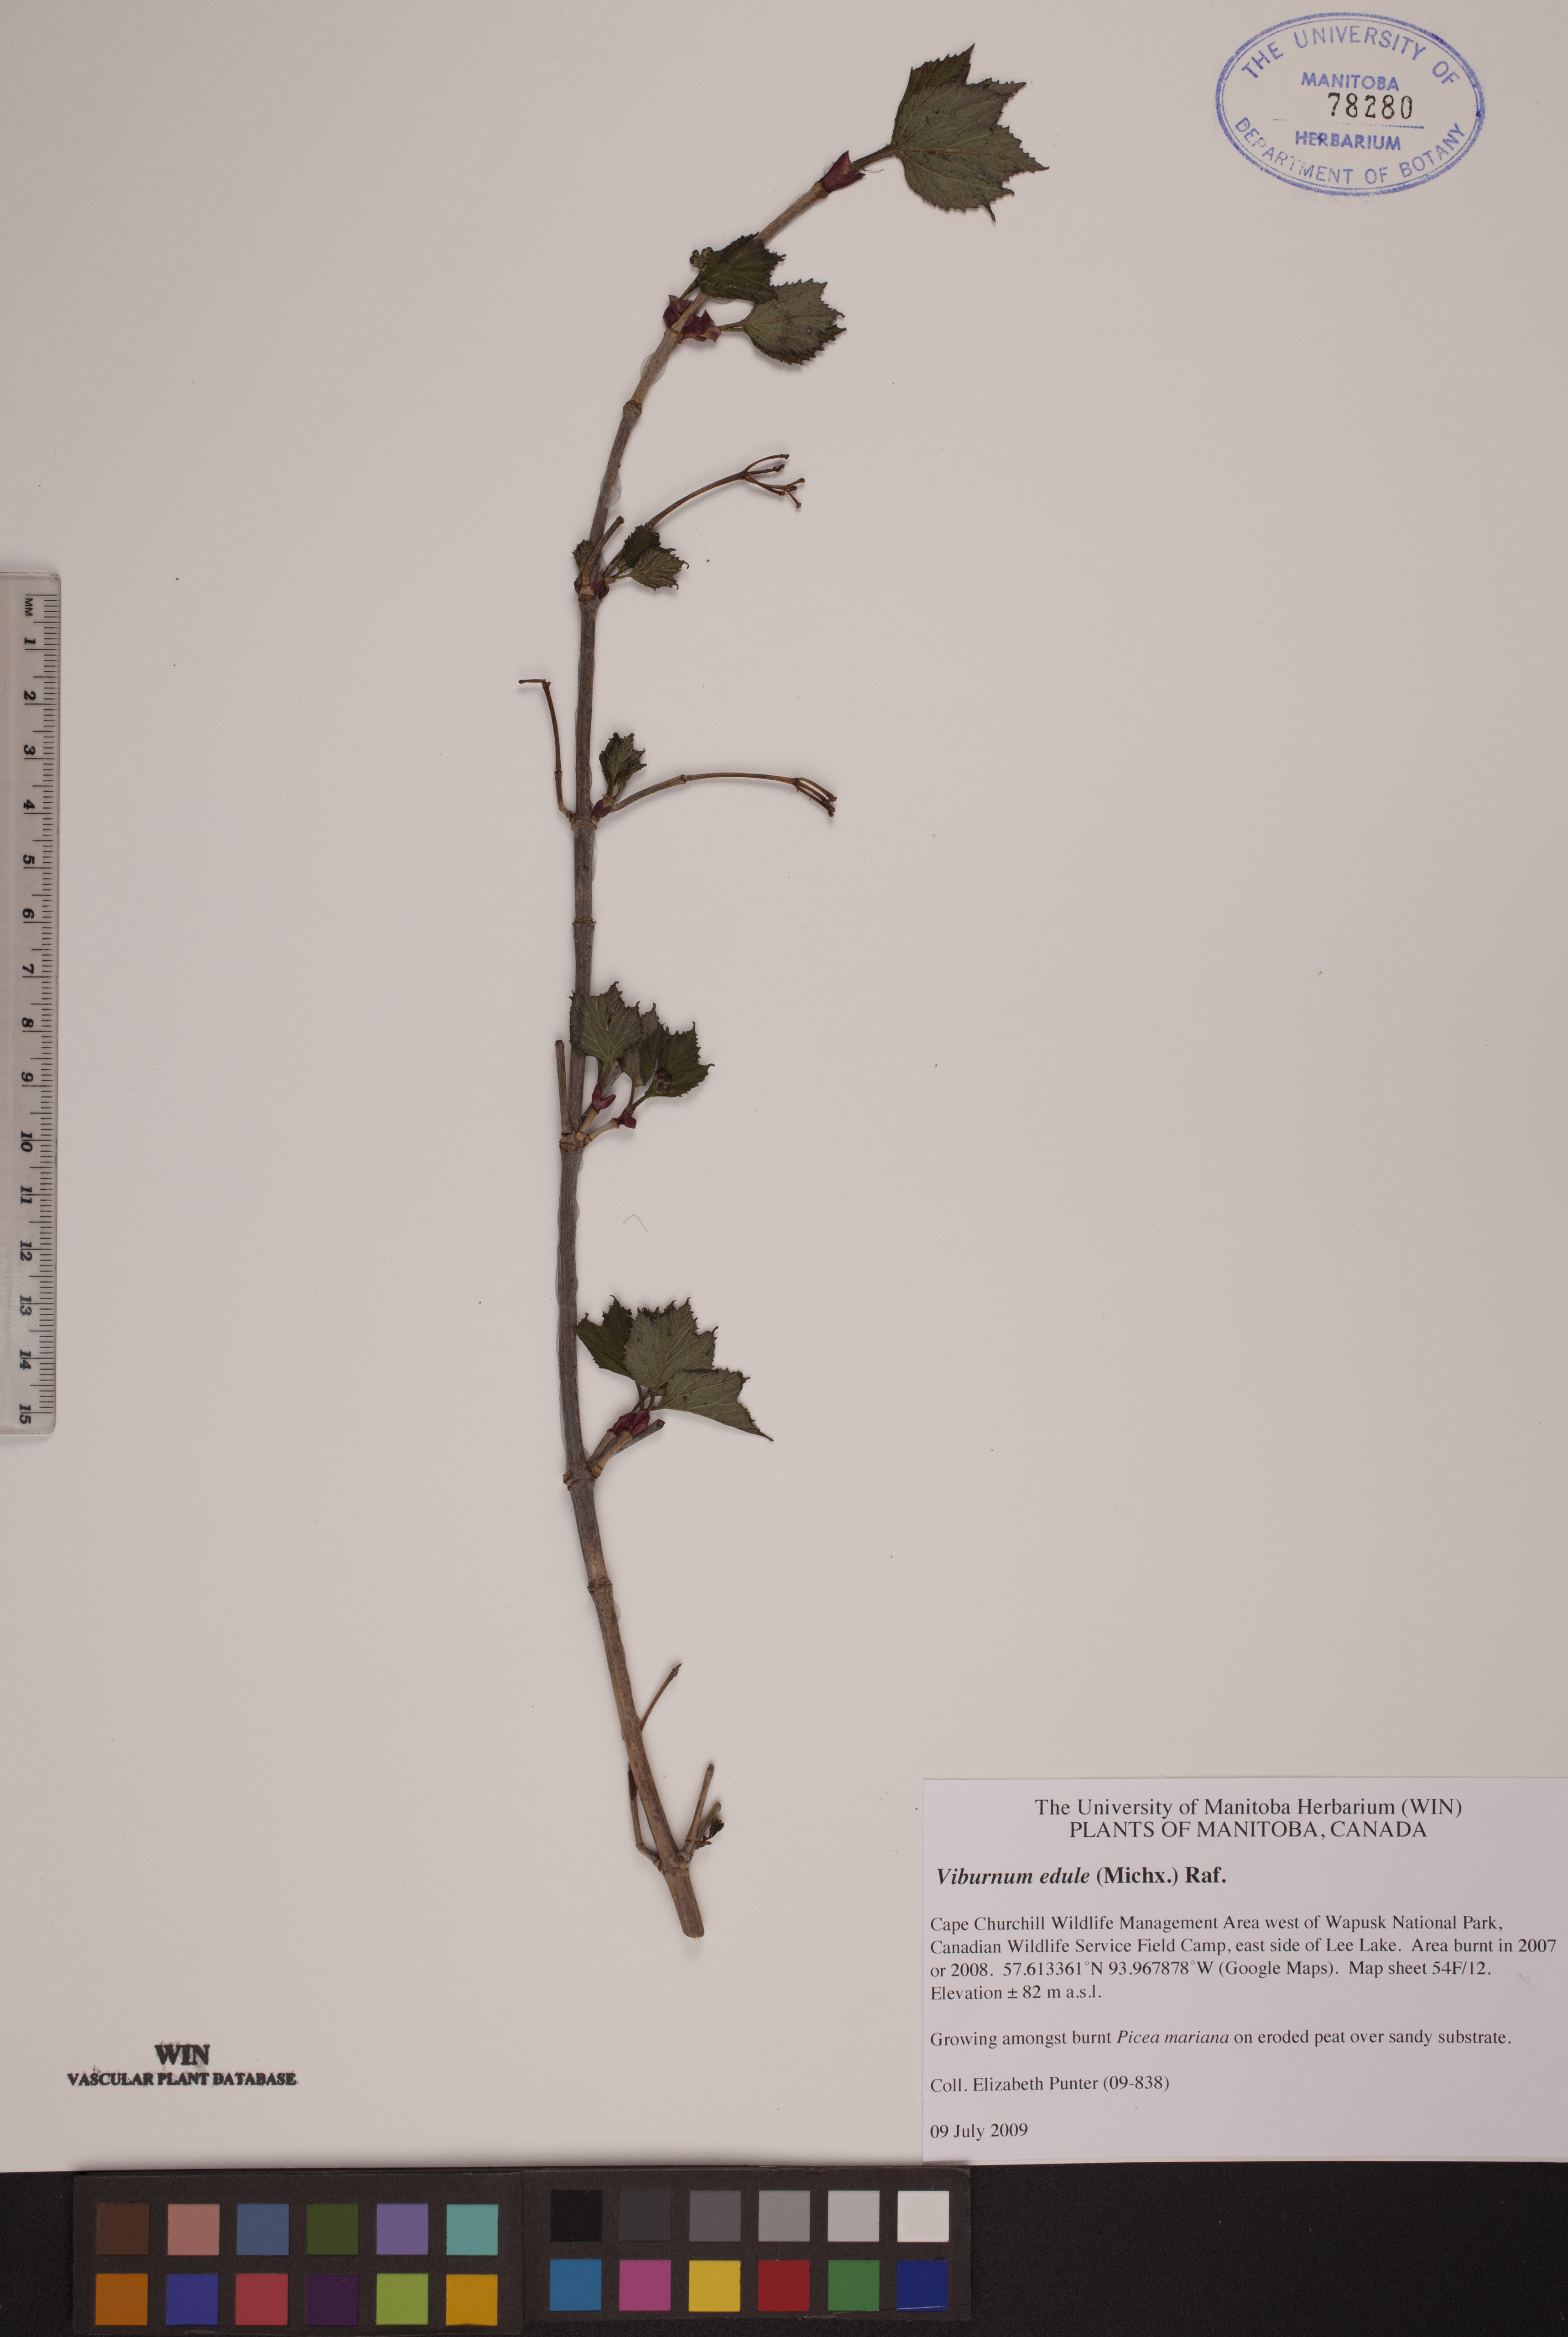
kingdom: Plantae
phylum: Tracheophyta
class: Magnoliopsida
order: Dipsacales
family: Viburnaceae
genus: Viburnum
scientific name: Viburnum edule
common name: Mooseberry
